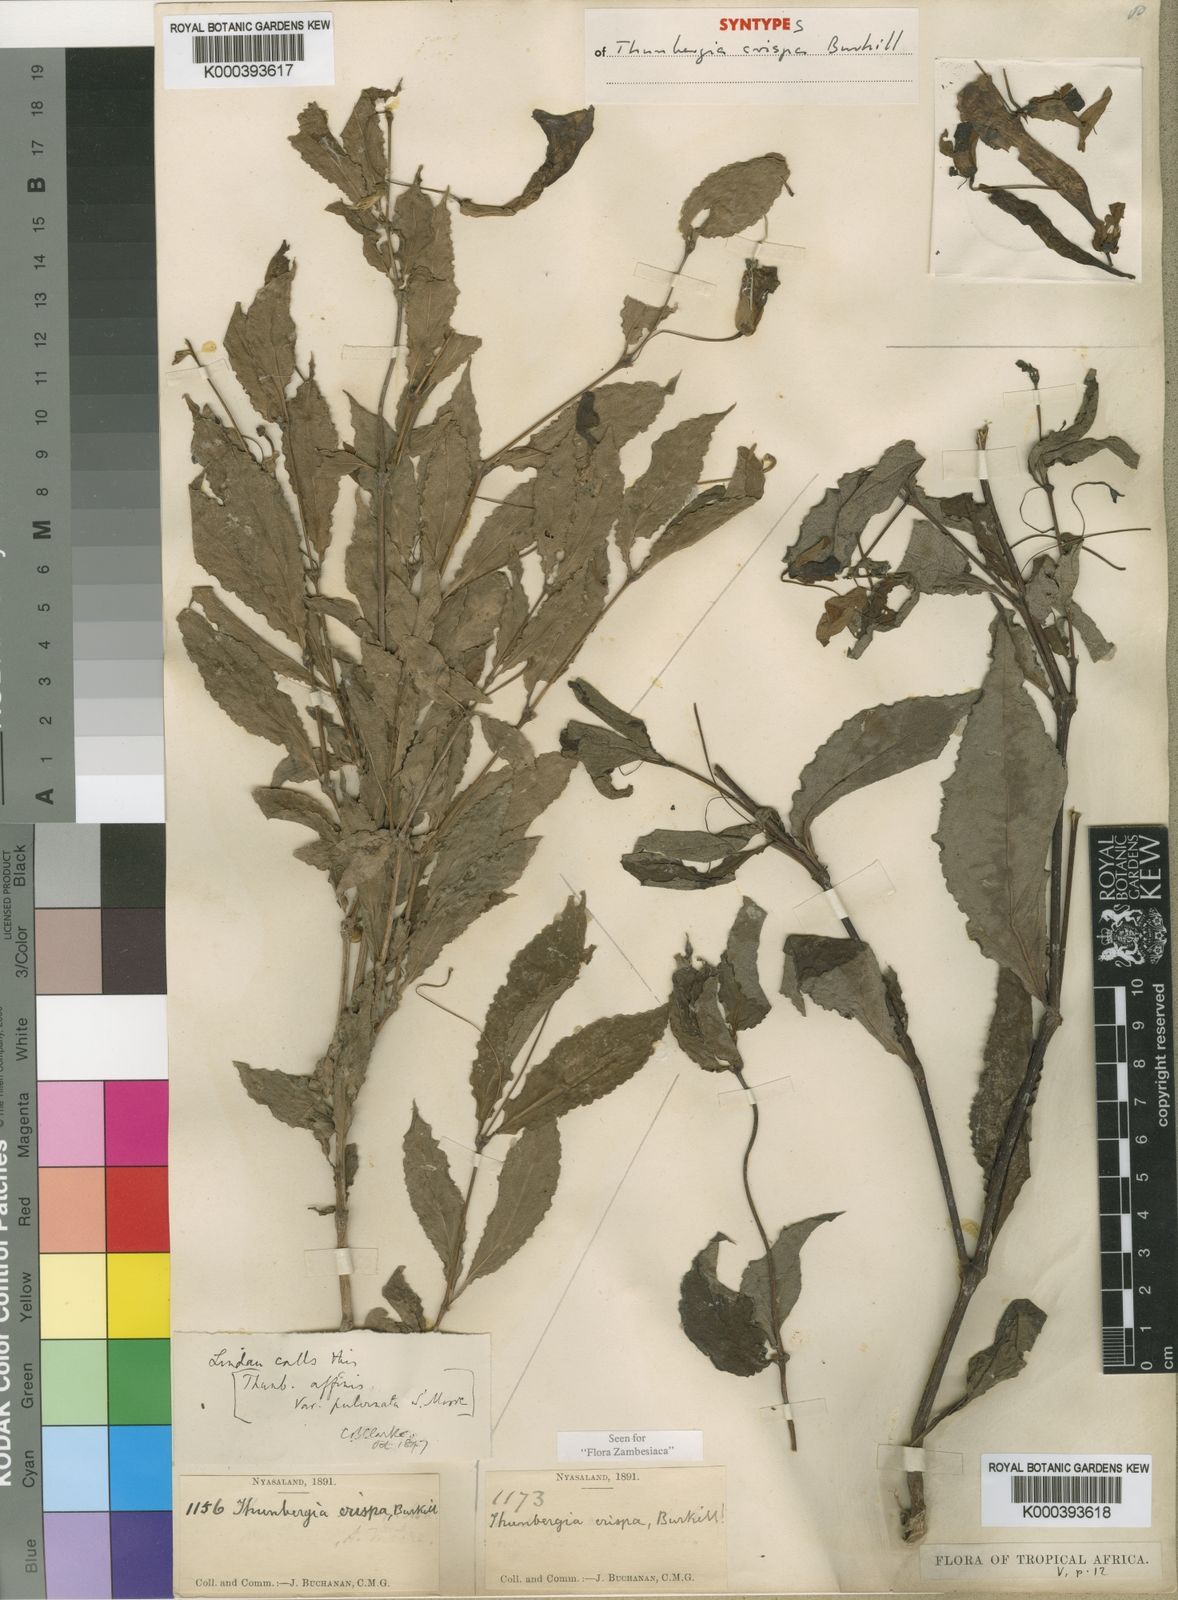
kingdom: Plantae
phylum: Tracheophyta
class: Magnoliopsida
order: Lamiales
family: Acanthaceae
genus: Thunbergia
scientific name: Thunbergia crispa
